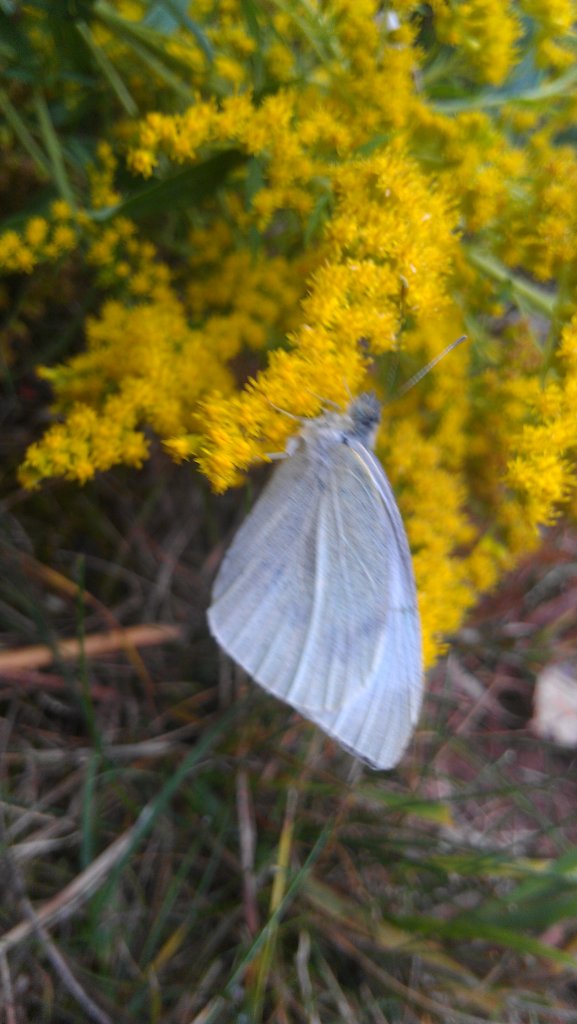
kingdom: Animalia
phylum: Arthropoda
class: Insecta
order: Lepidoptera
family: Pieridae
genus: Pieris
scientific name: Pieris rapae
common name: Cabbage White
